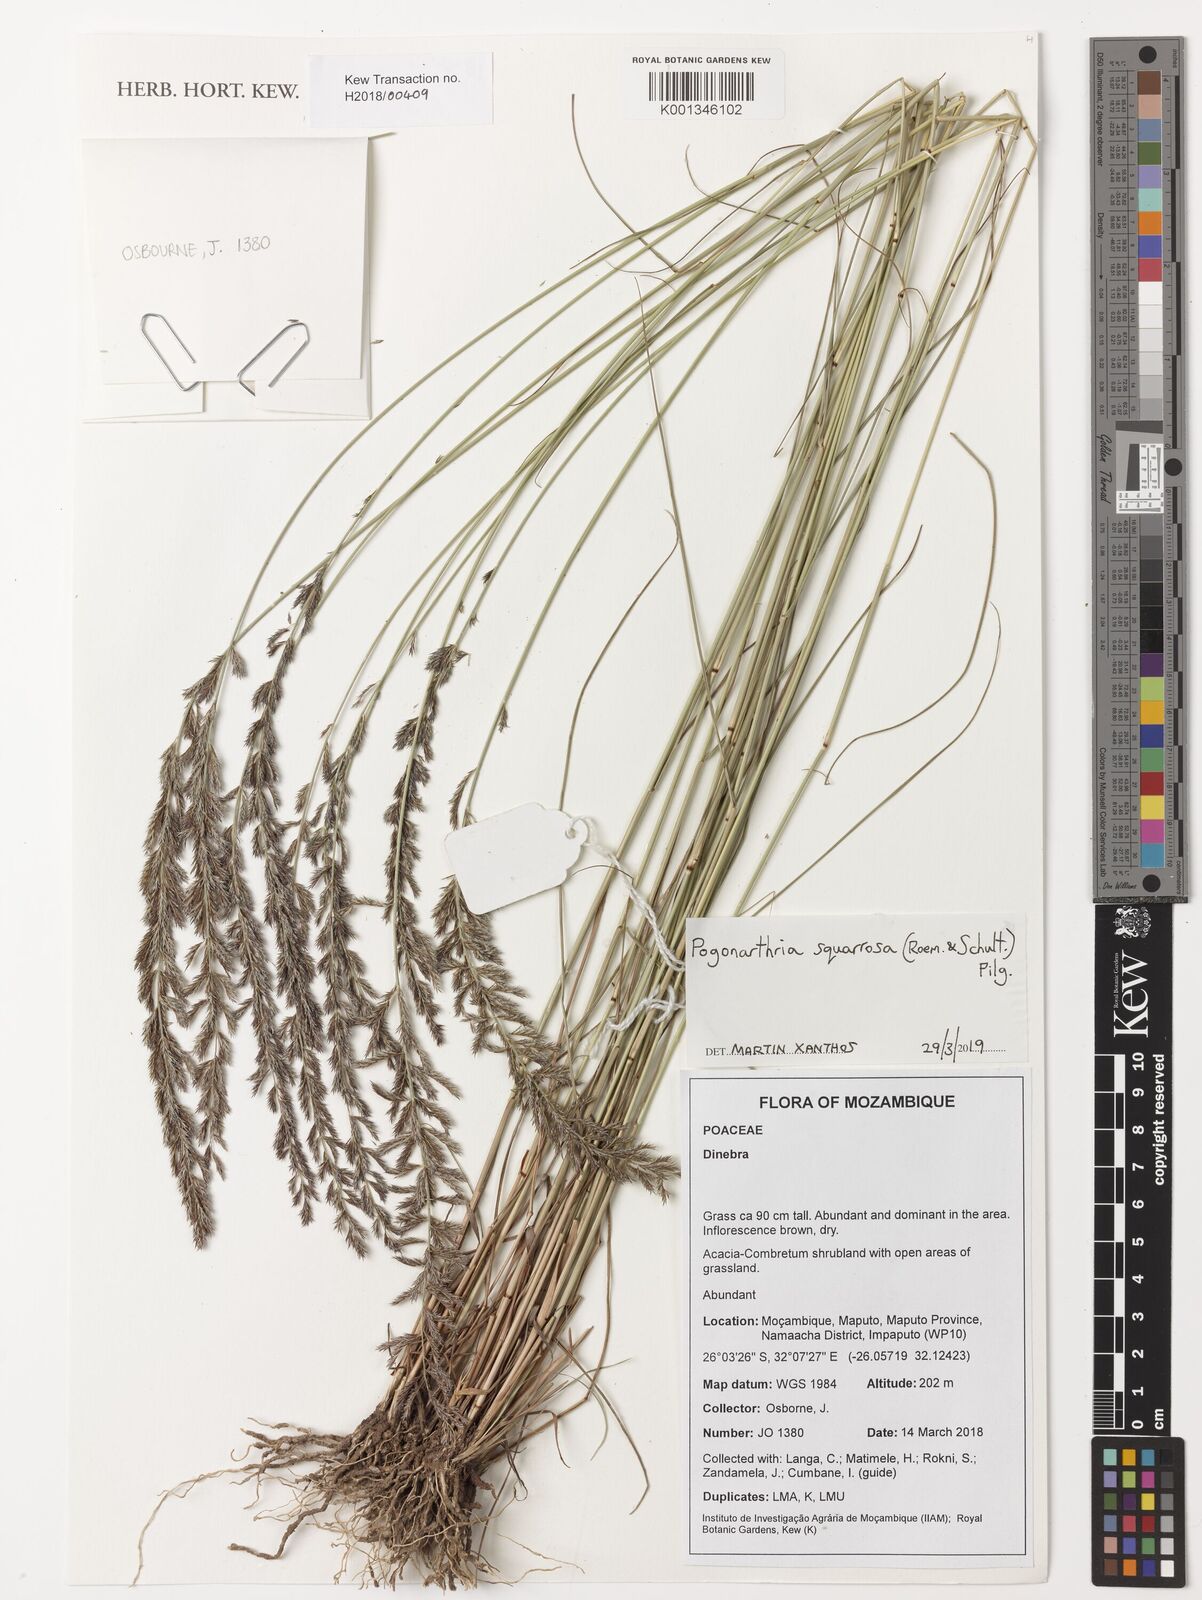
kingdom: Plantae
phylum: Tracheophyta
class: Liliopsida
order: Poales
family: Poaceae
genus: Pogonarthria
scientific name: Pogonarthria squarrosa
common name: Grass
